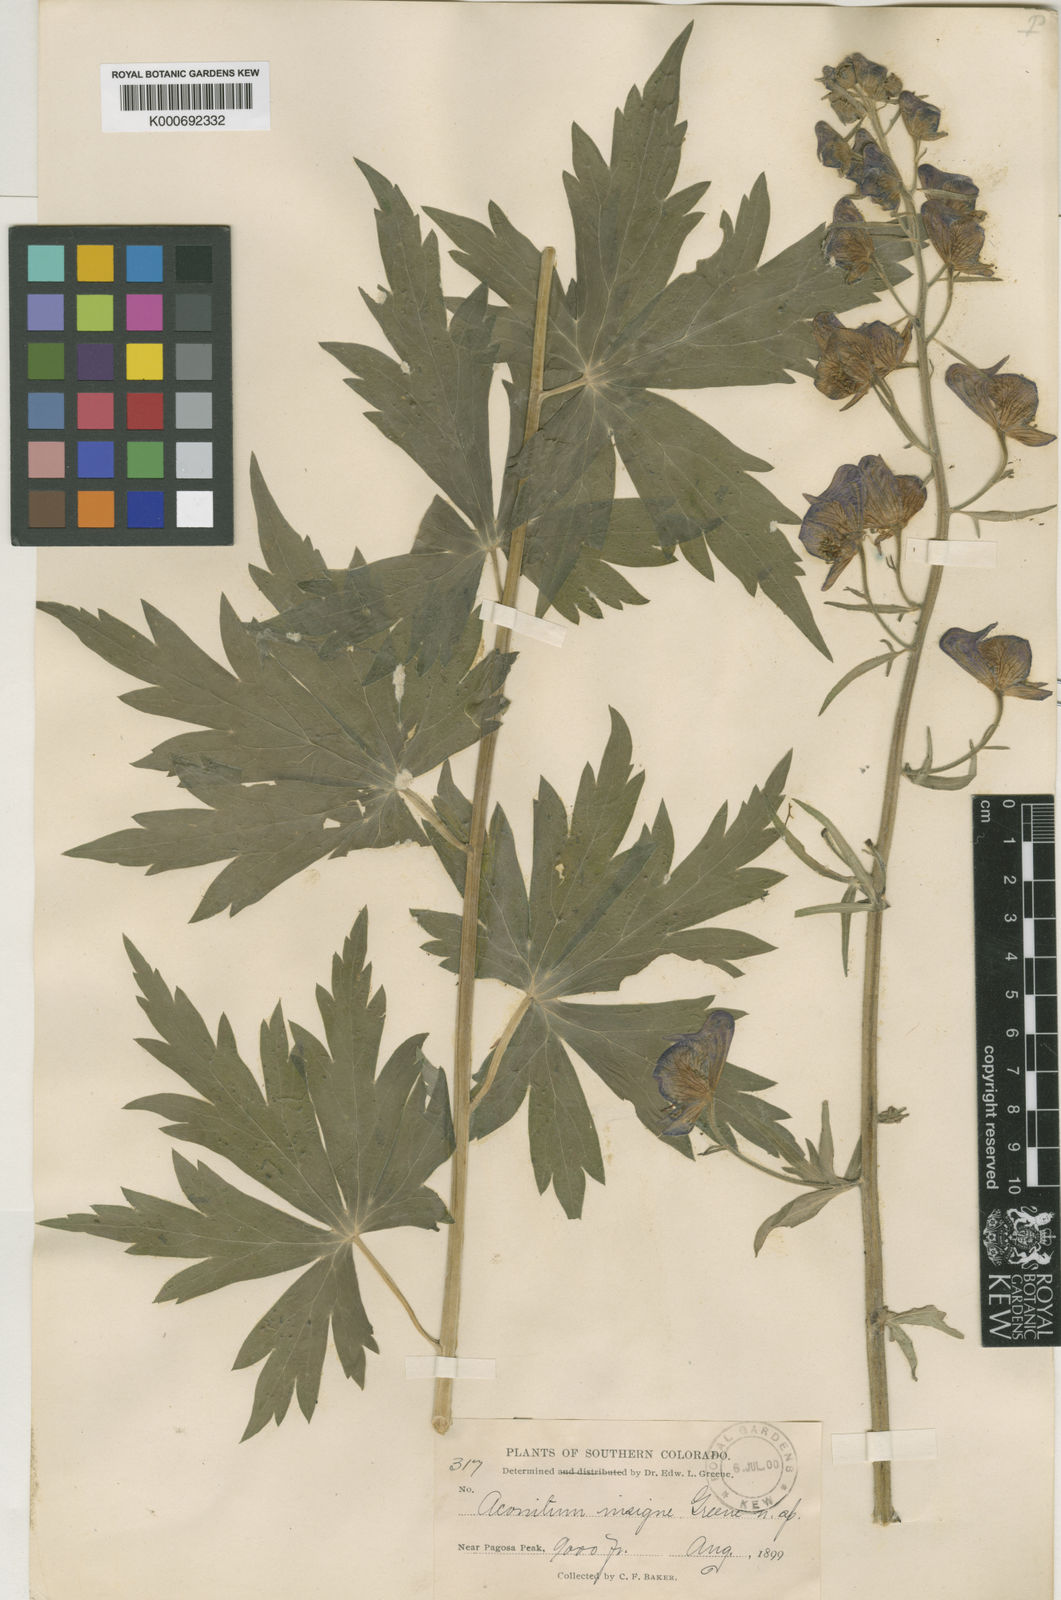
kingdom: Plantae
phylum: Tracheophyta
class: Magnoliopsida
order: Ranunculales
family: Ranunculaceae
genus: Aconitum
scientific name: Aconitum
